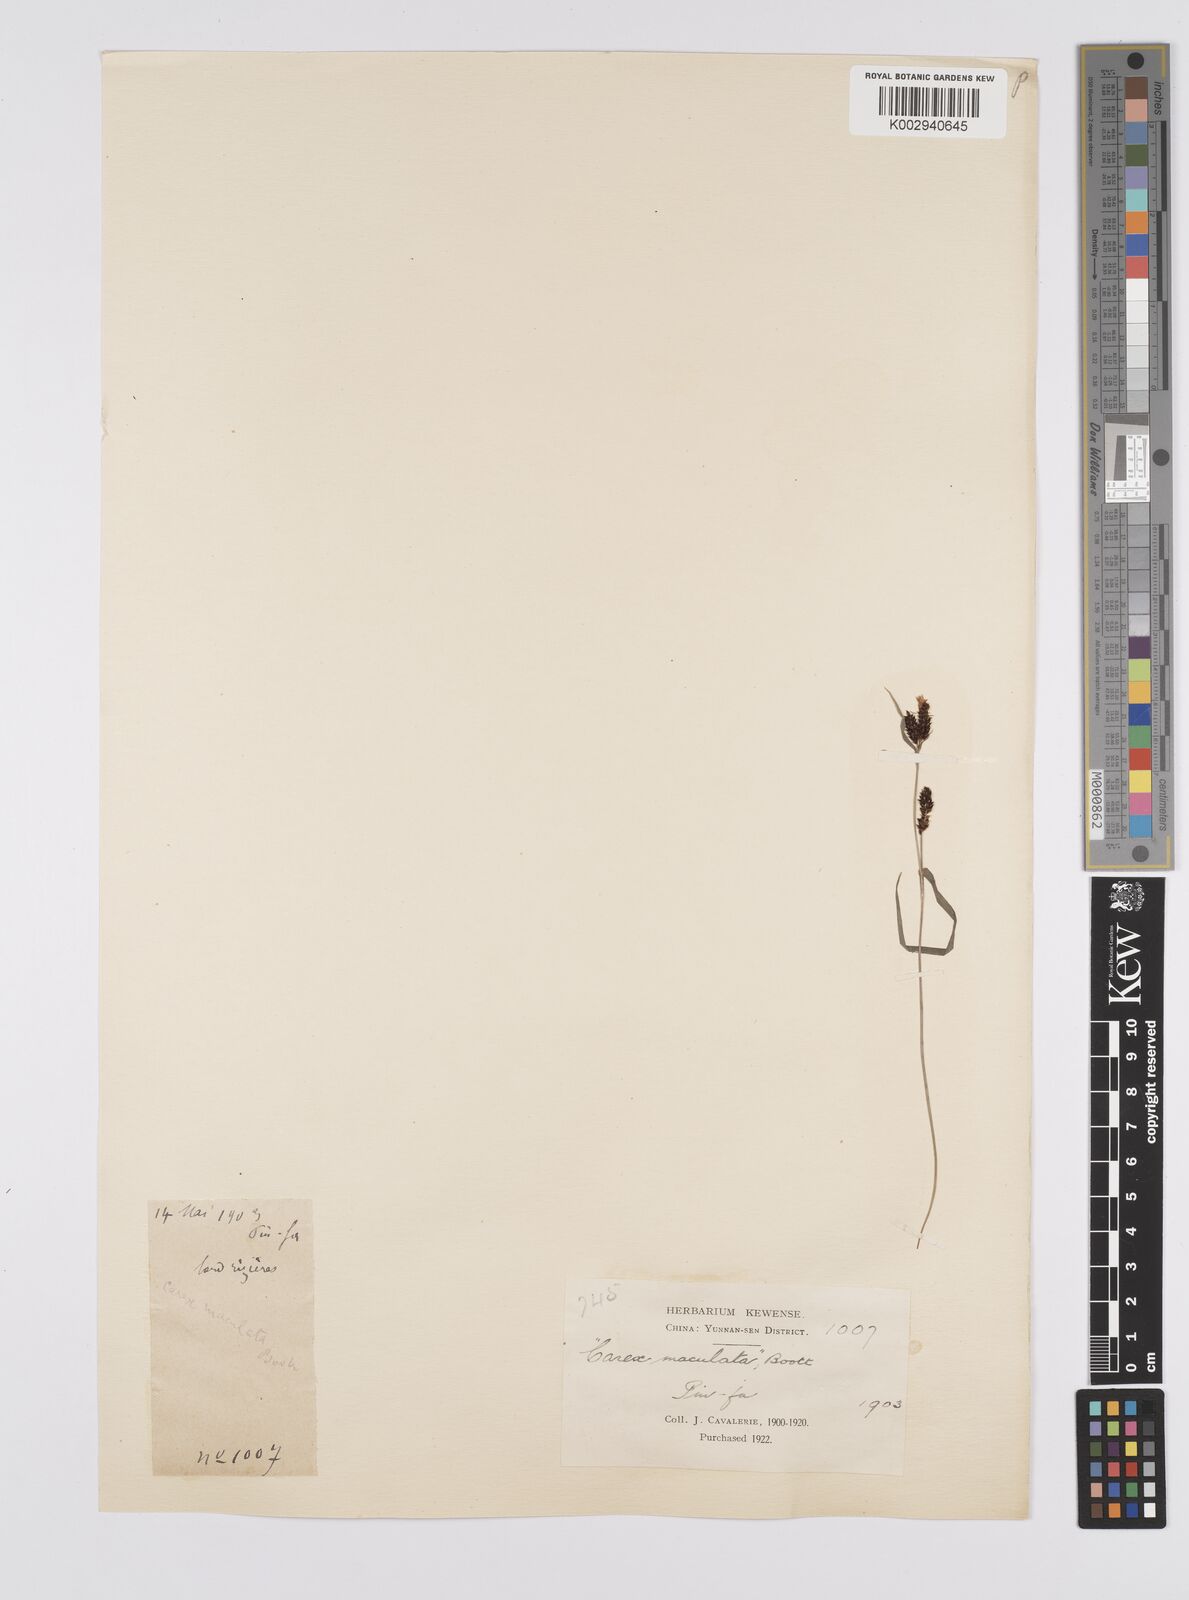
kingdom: Plantae
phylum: Tracheophyta
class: Liliopsida
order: Poales
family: Cyperaceae
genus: Carex
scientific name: Carex maculata
